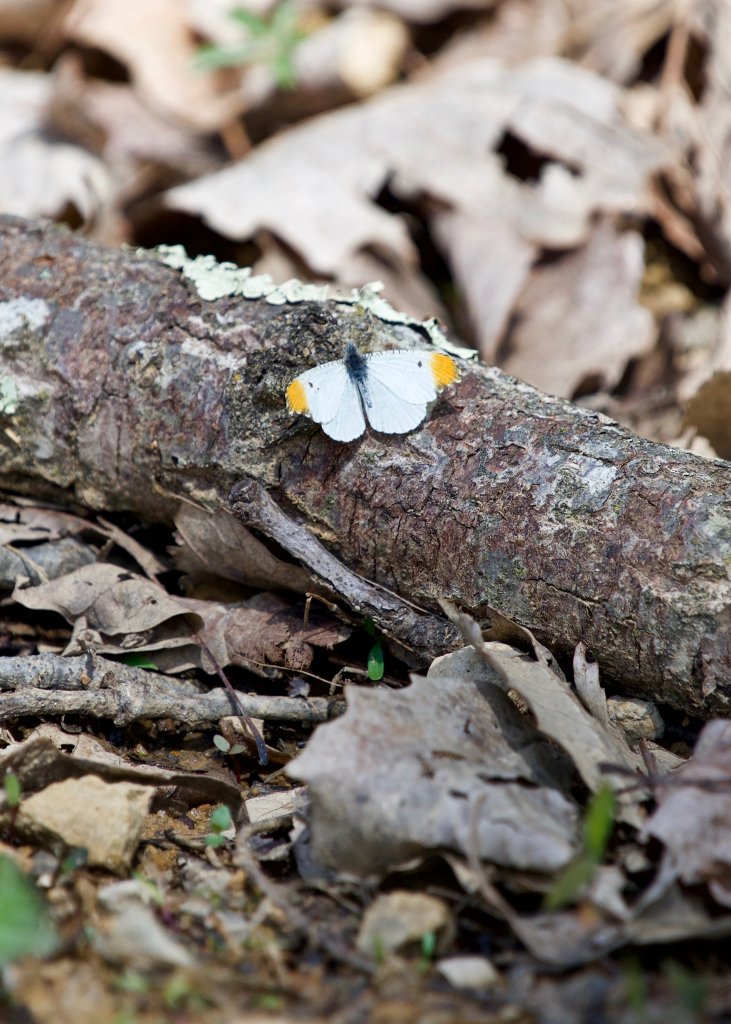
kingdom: Animalia
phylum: Arthropoda
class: Insecta
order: Lepidoptera
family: Pieridae
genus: Anthocharis
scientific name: Anthocharis midea
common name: Falcate Orangetip
